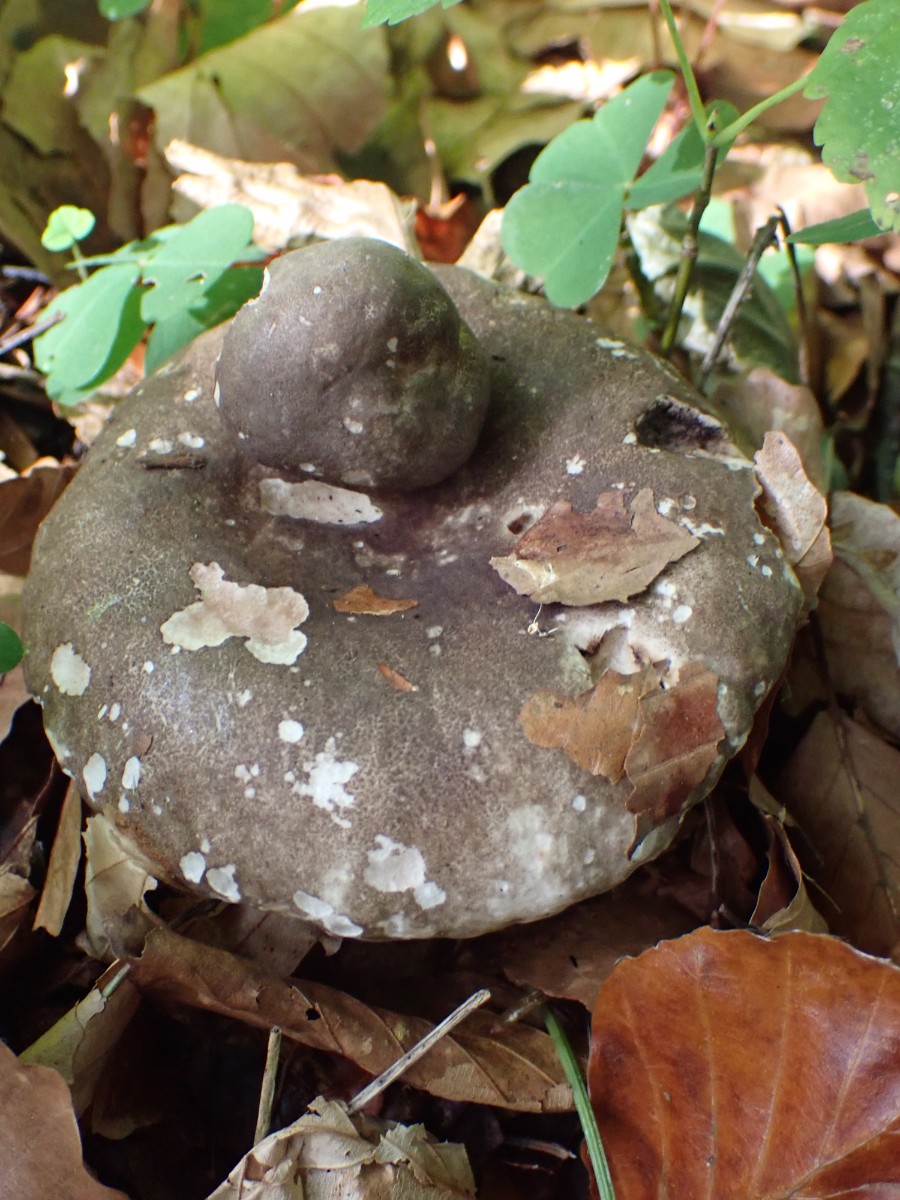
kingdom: Fungi
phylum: Basidiomycota
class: Agaricomycetes
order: Russulales
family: Russulaceae
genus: Russula
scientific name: Russula adusta
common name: sværtende skørhat
